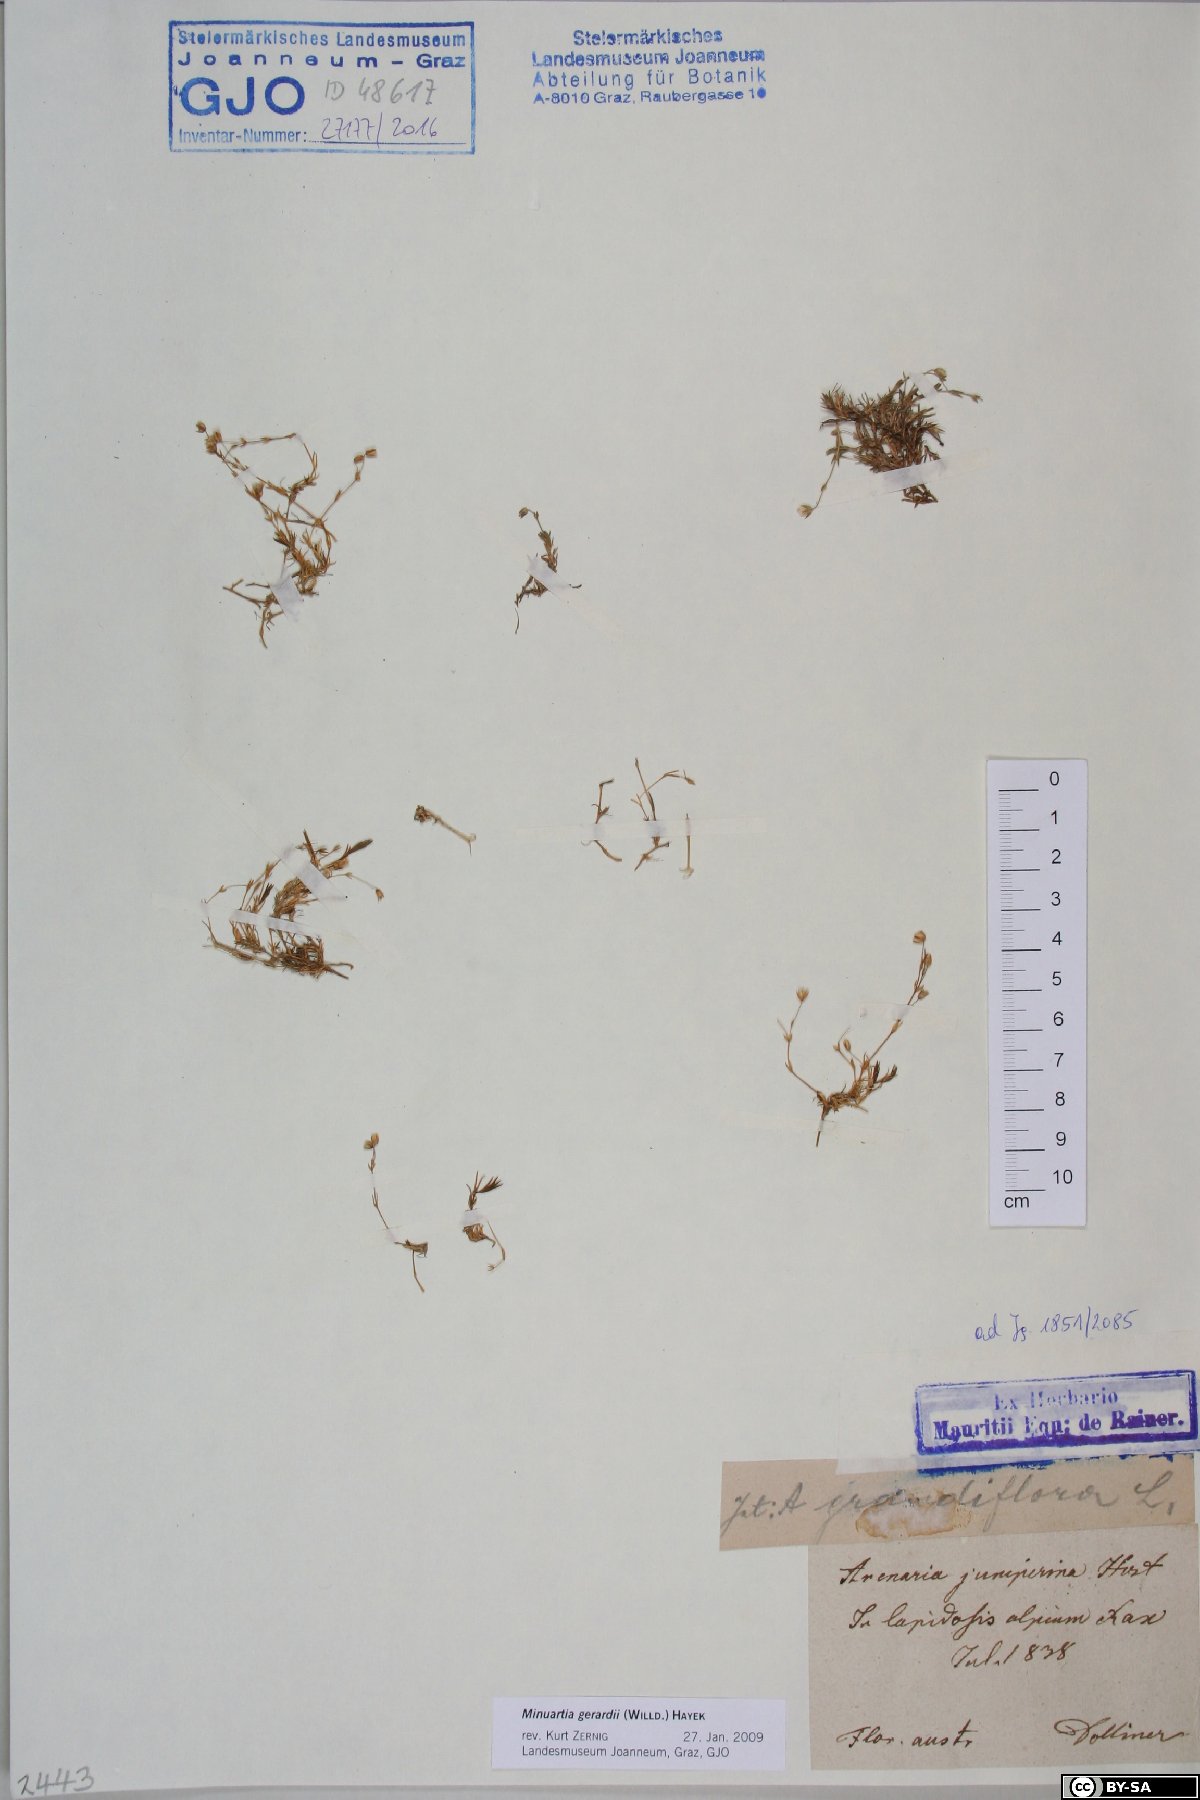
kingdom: Plantae
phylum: Tracheophyta
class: Magnoliopsida
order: Caryophyllales
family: Caryophyllaceae
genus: Sabulina
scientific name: Sabulina verna
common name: Spring sandwort
